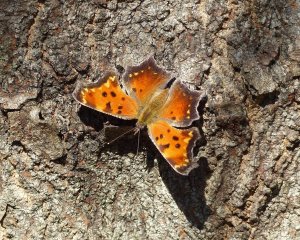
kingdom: Animalia
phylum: Arthropoda
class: Insecta
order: Lepidoptera
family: Nymphalidae
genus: Polygonia
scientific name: Polygonia progne
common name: Gray Comma
